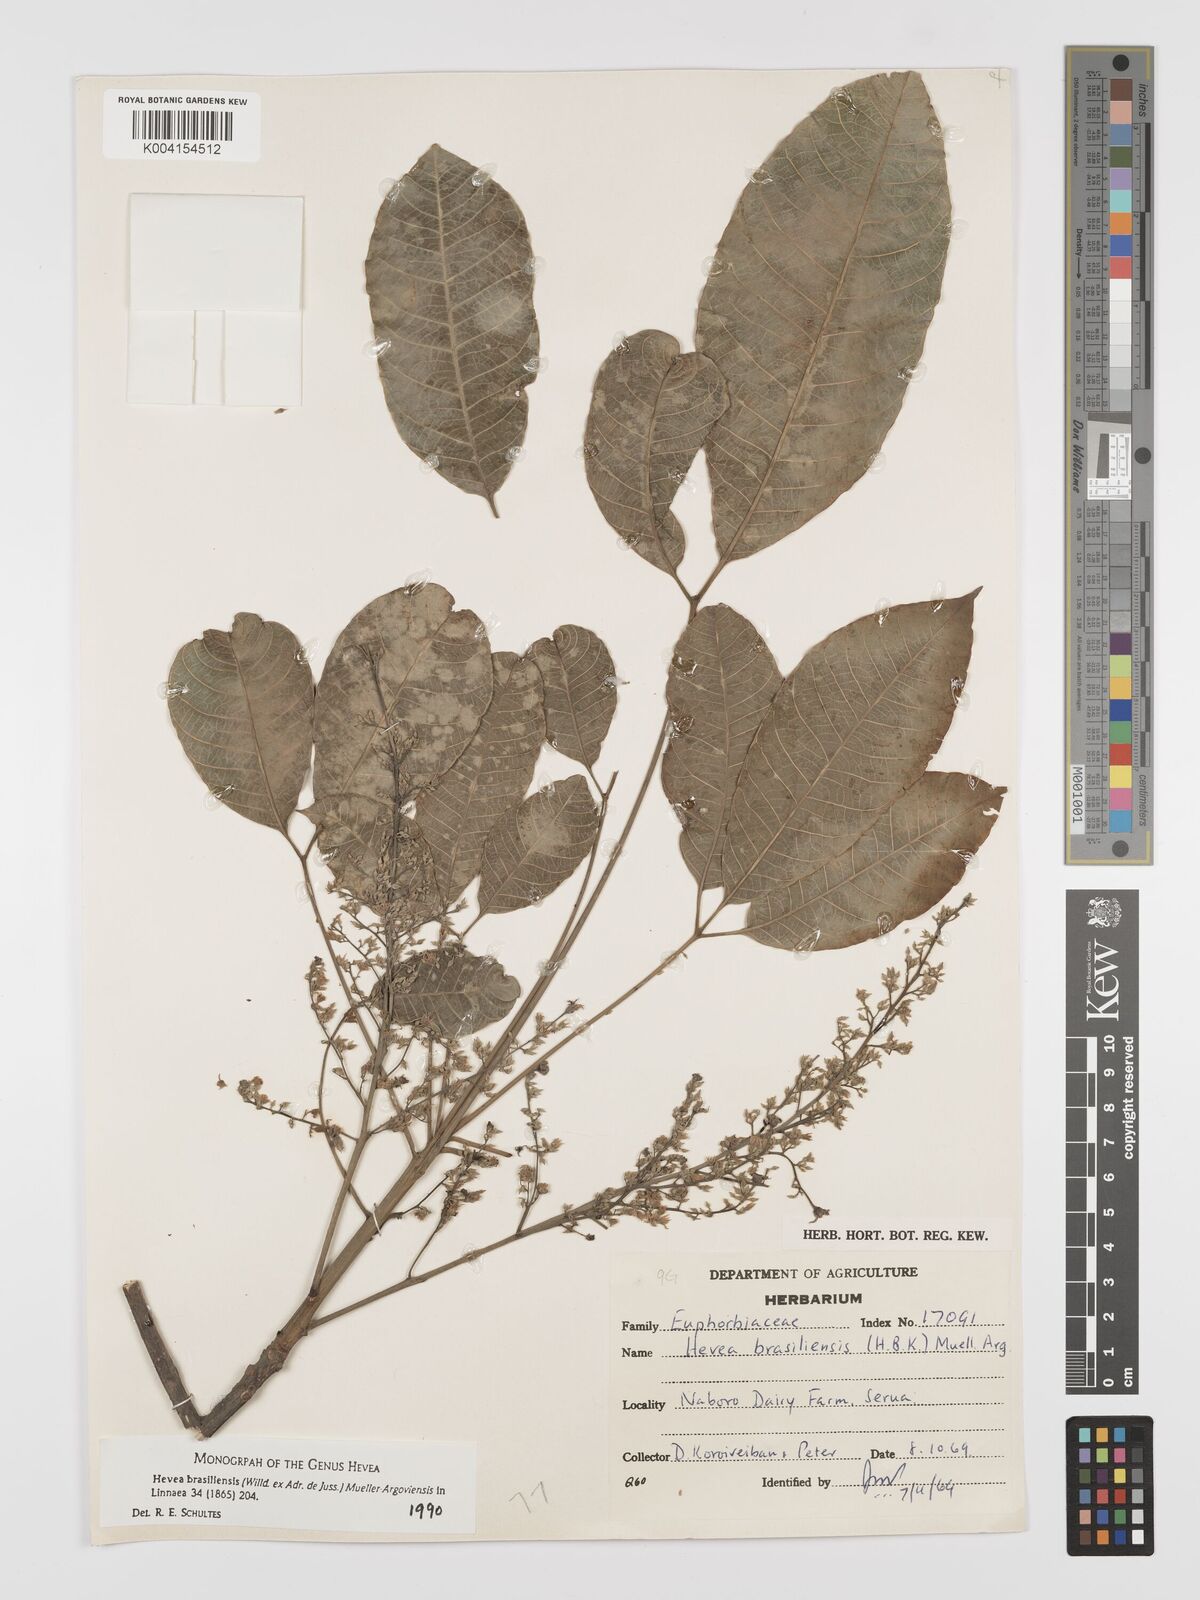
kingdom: Plantae
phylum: Tracheophyta
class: Magnoliopsida
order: Malpighiales
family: Euphorbiaceae
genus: Hevea
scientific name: Hevea brasiliensis
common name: Natural rubber
